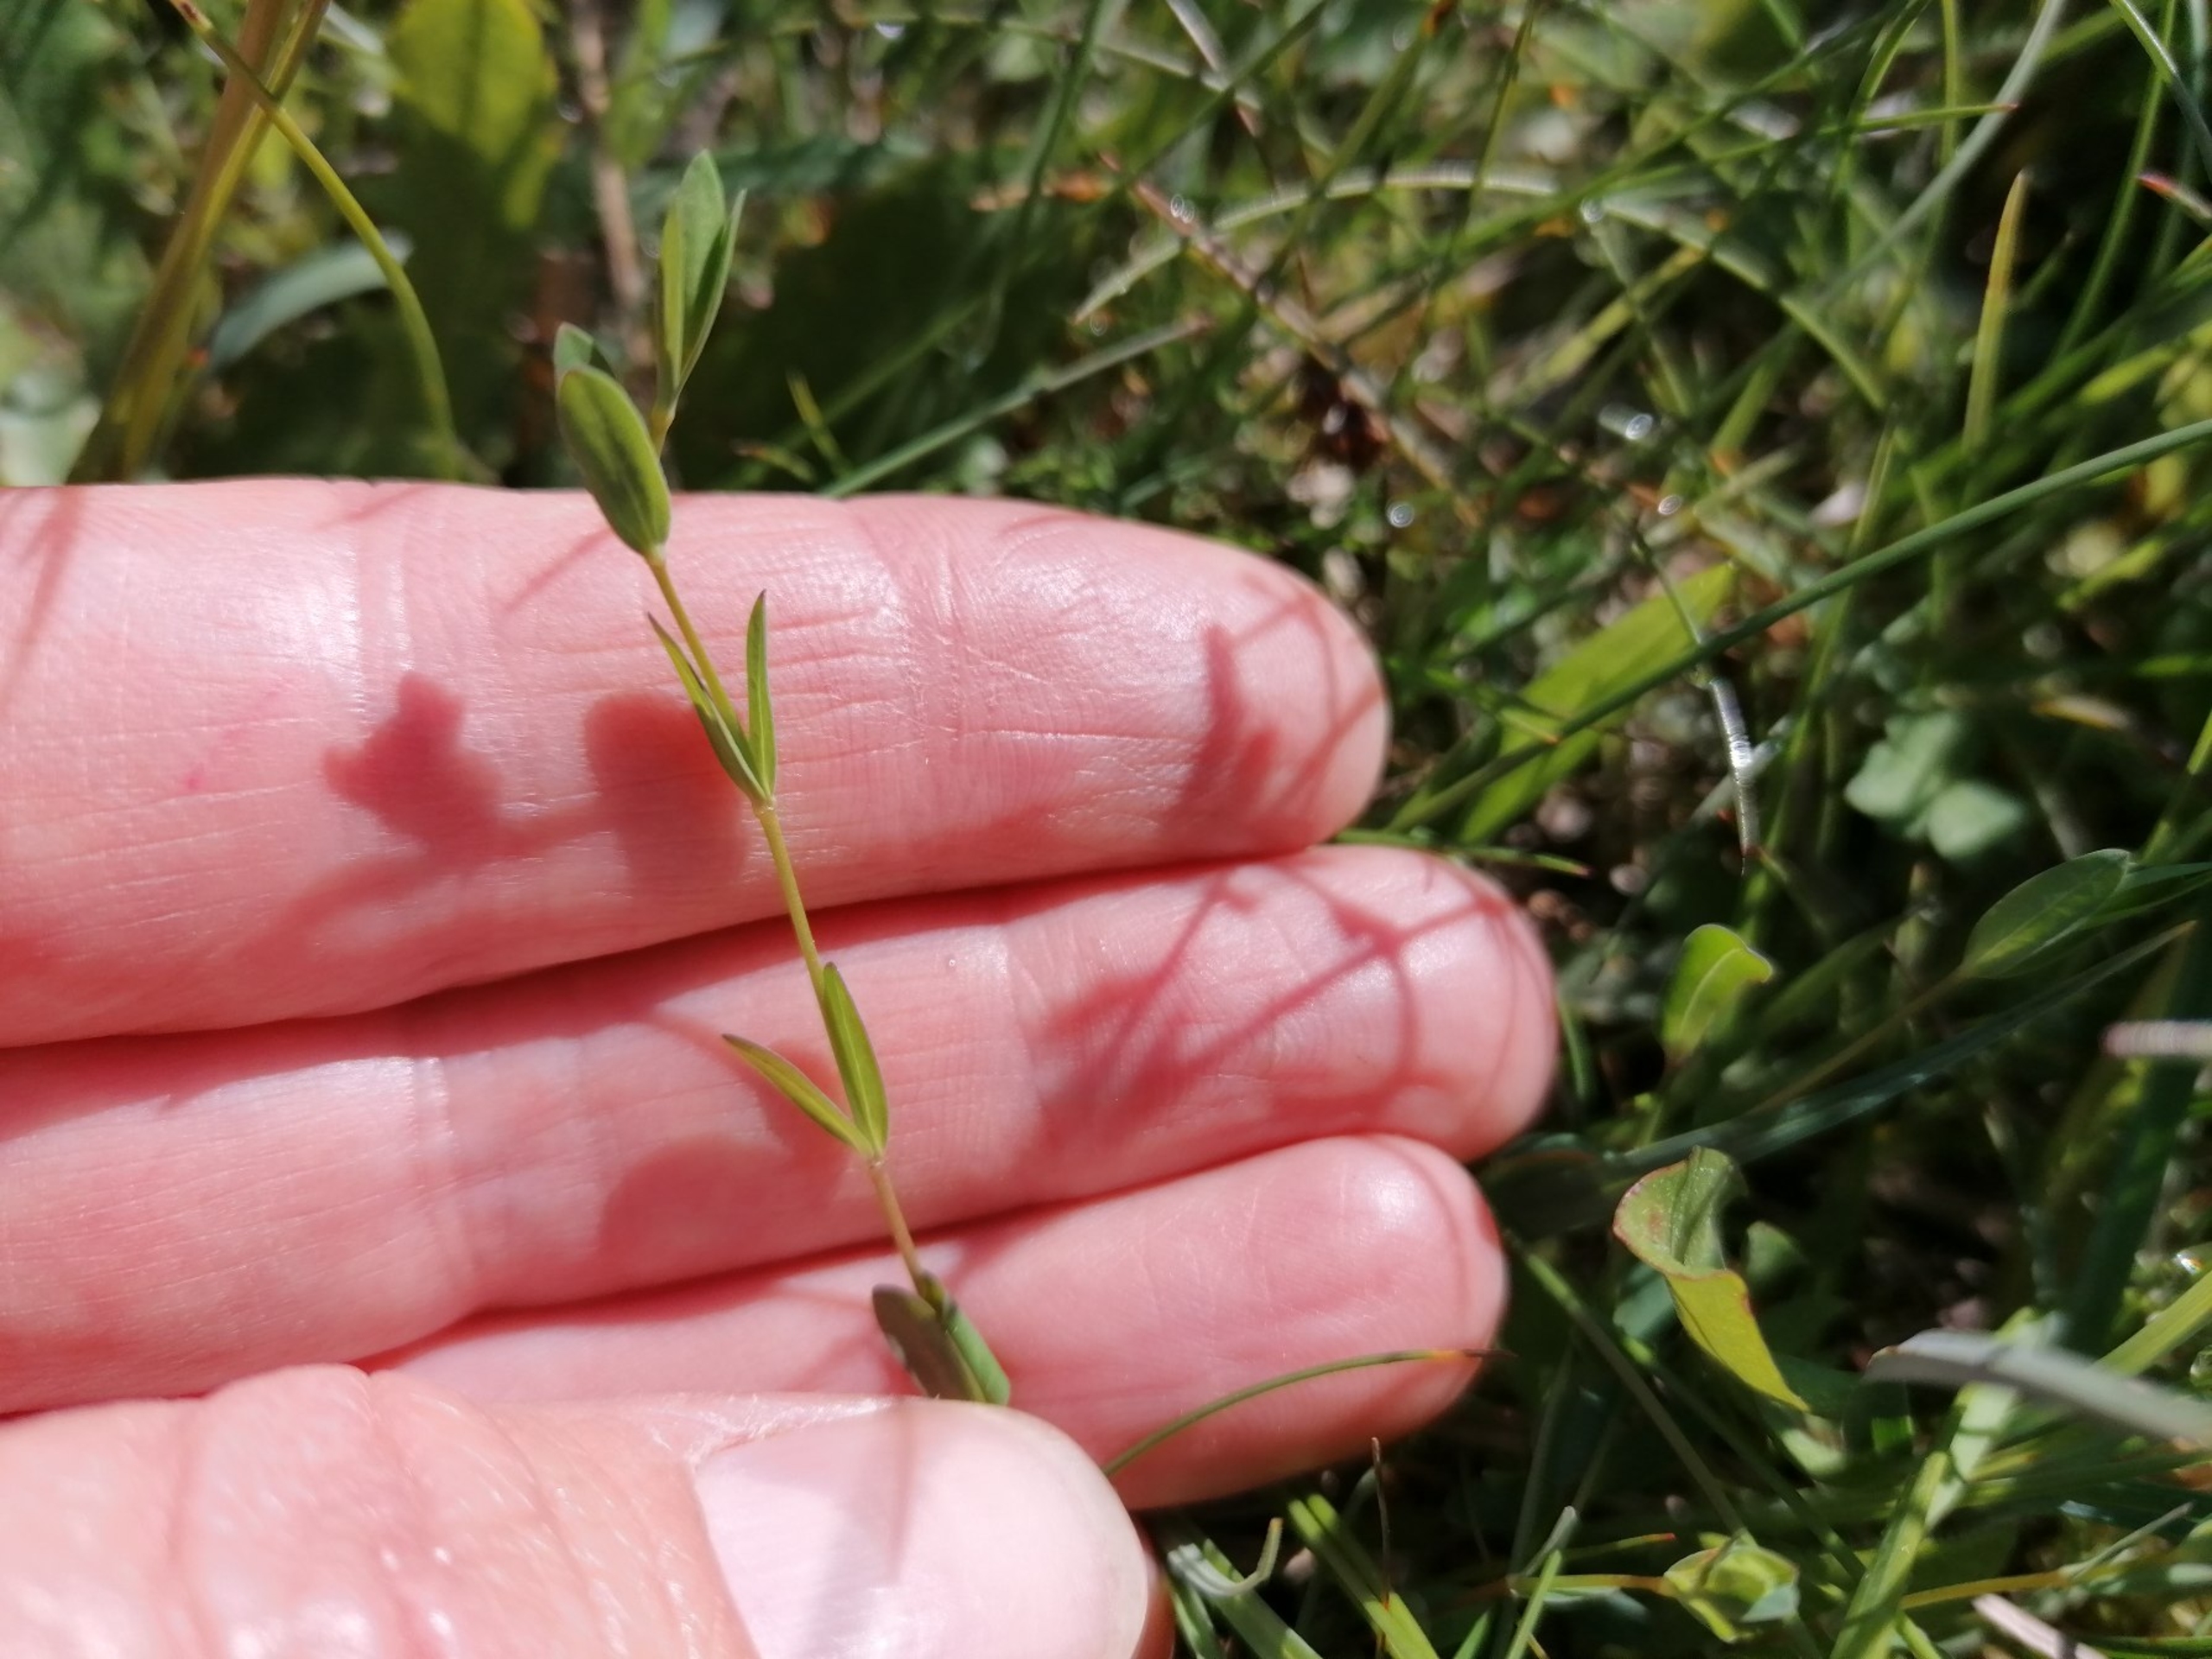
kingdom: Plantae
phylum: Tracheophyta
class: Magnoliopsida
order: Malpighiales
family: Linaceae
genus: Linum
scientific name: Linum catharticum
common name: Vild hør
